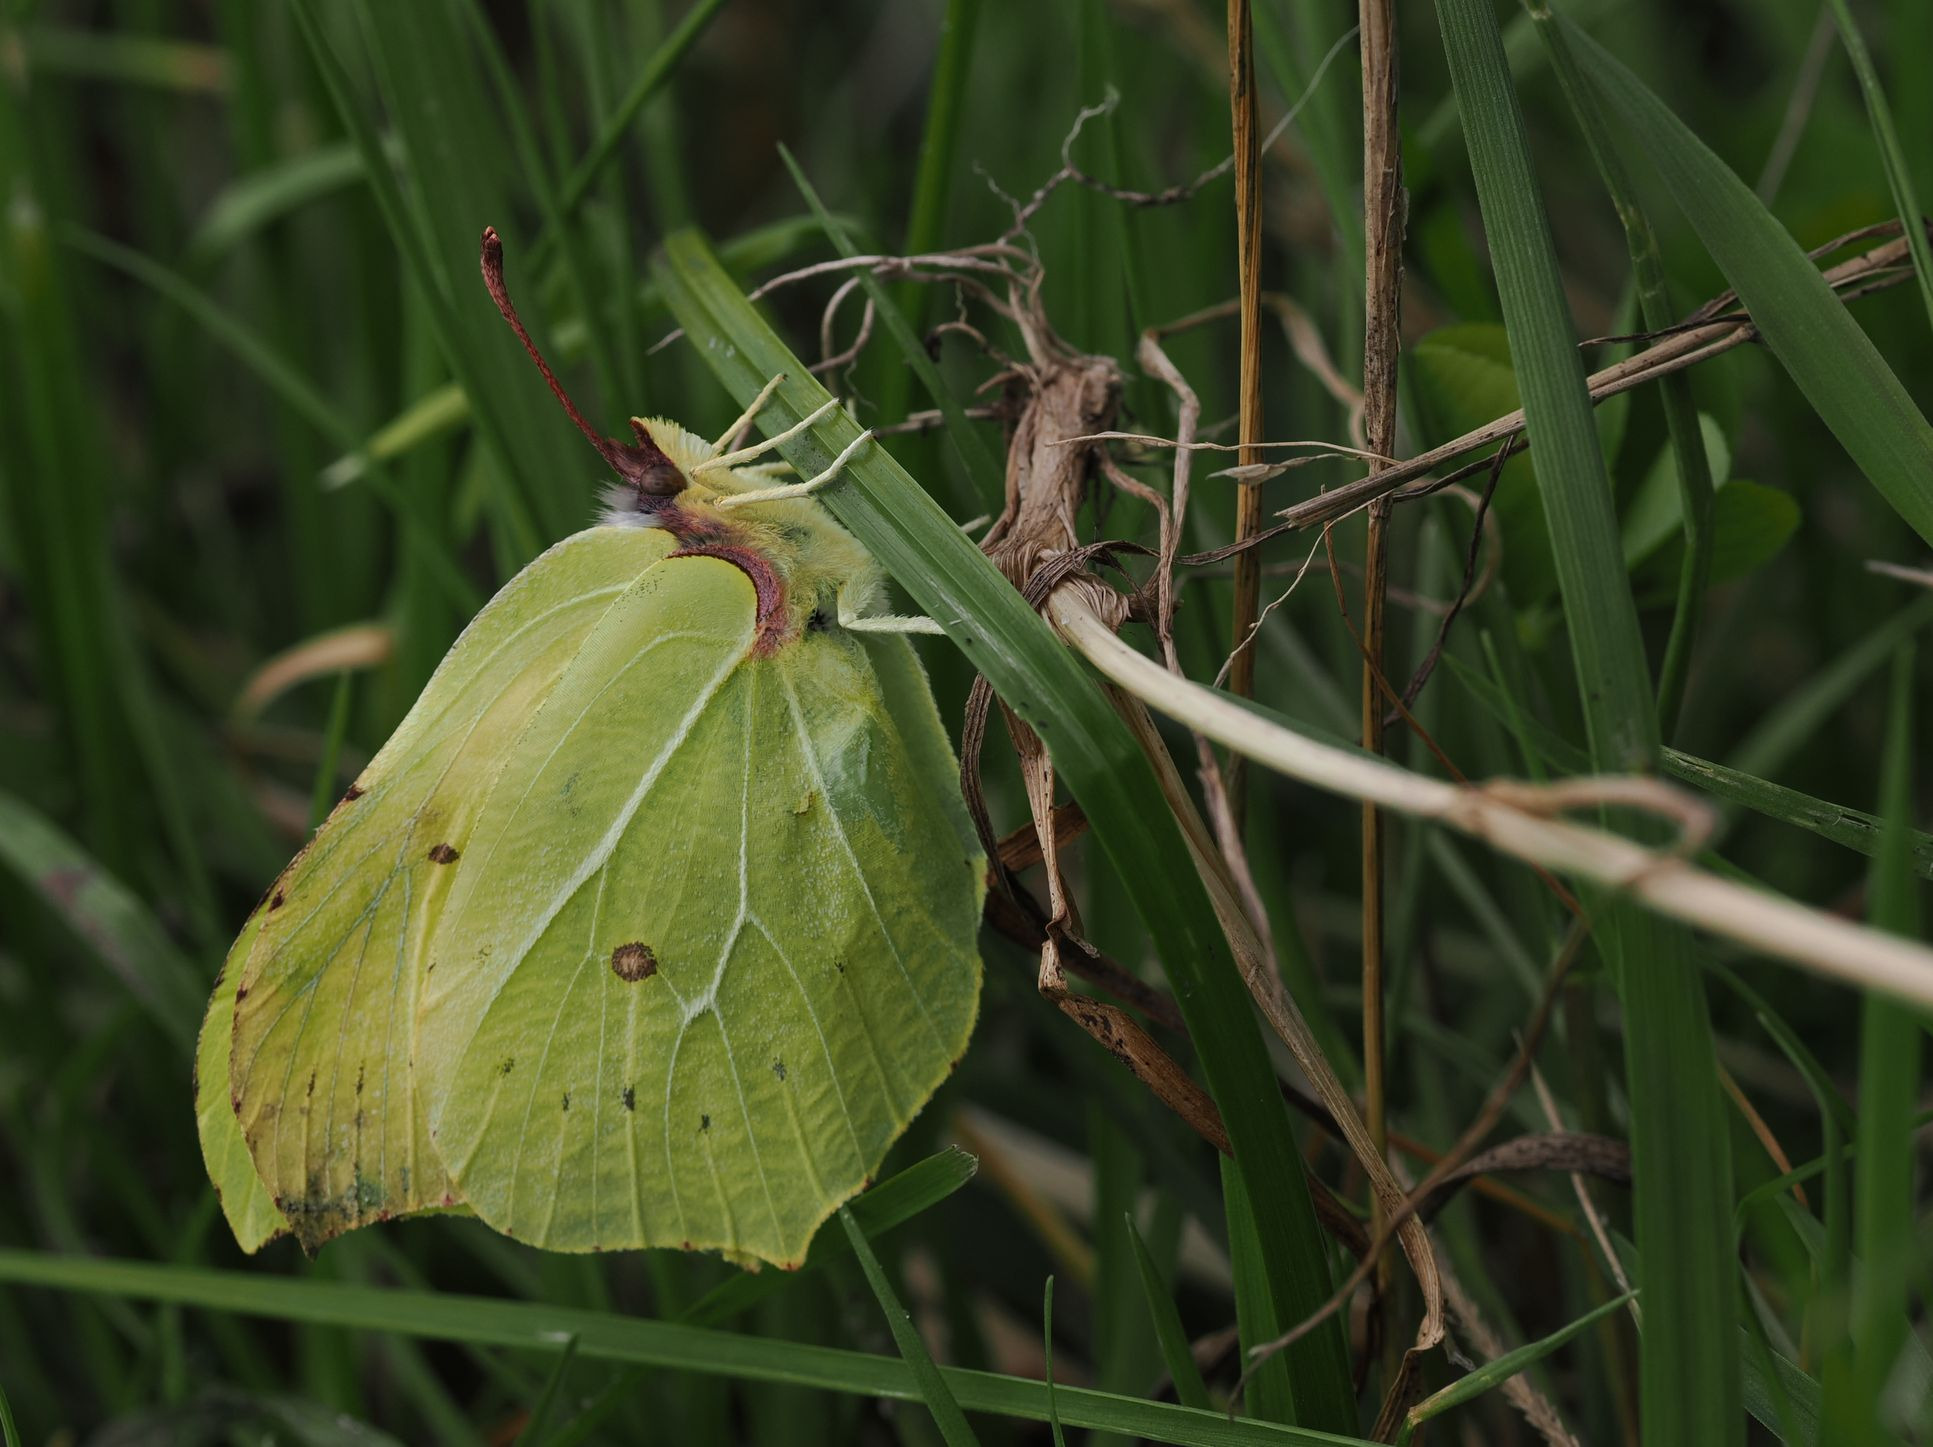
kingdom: Animalia
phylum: Arthropoda
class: Insecta
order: Lepidoptera
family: Pieridae
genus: Gonepteryx
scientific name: Gonepteryx rhamni
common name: Citronsommerfugl
